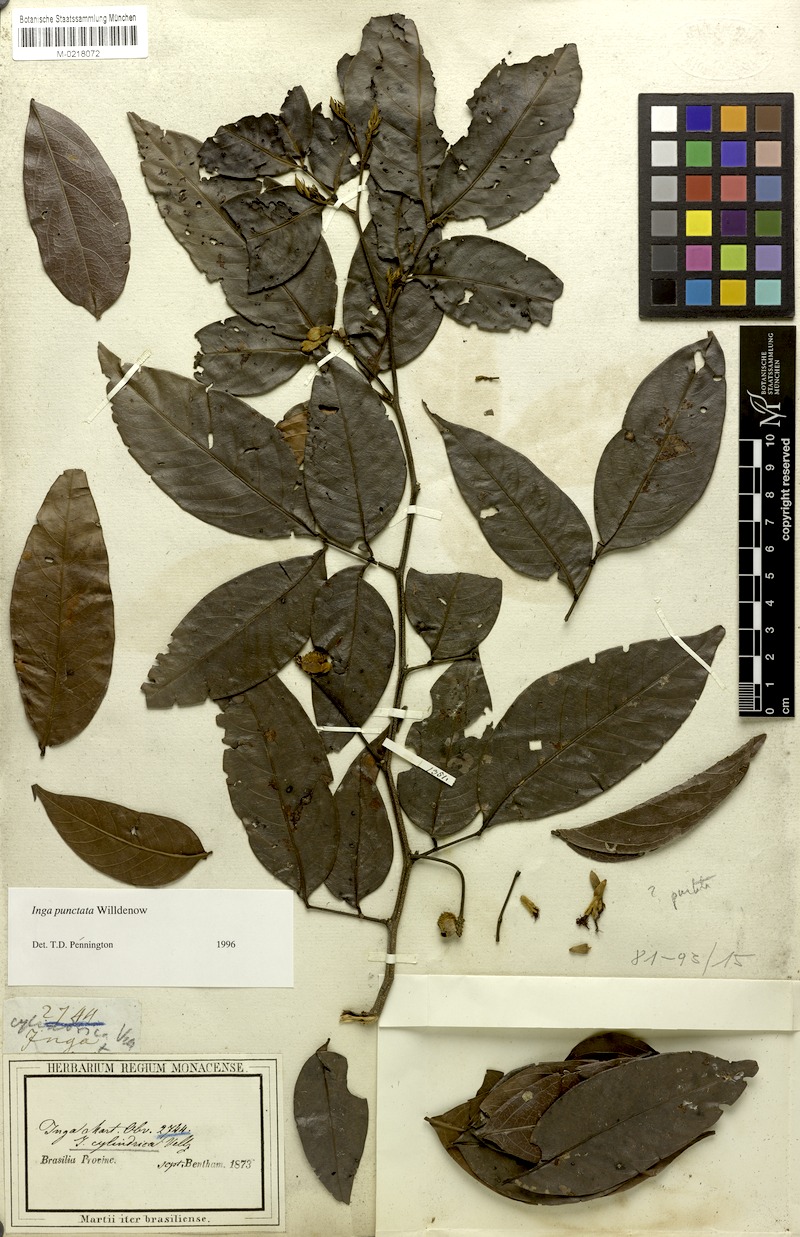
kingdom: Plantae
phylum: Tracheophyta
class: Magnoliopsida
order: Fabales
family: Fabaceae
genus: Inga
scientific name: Inga punctata
